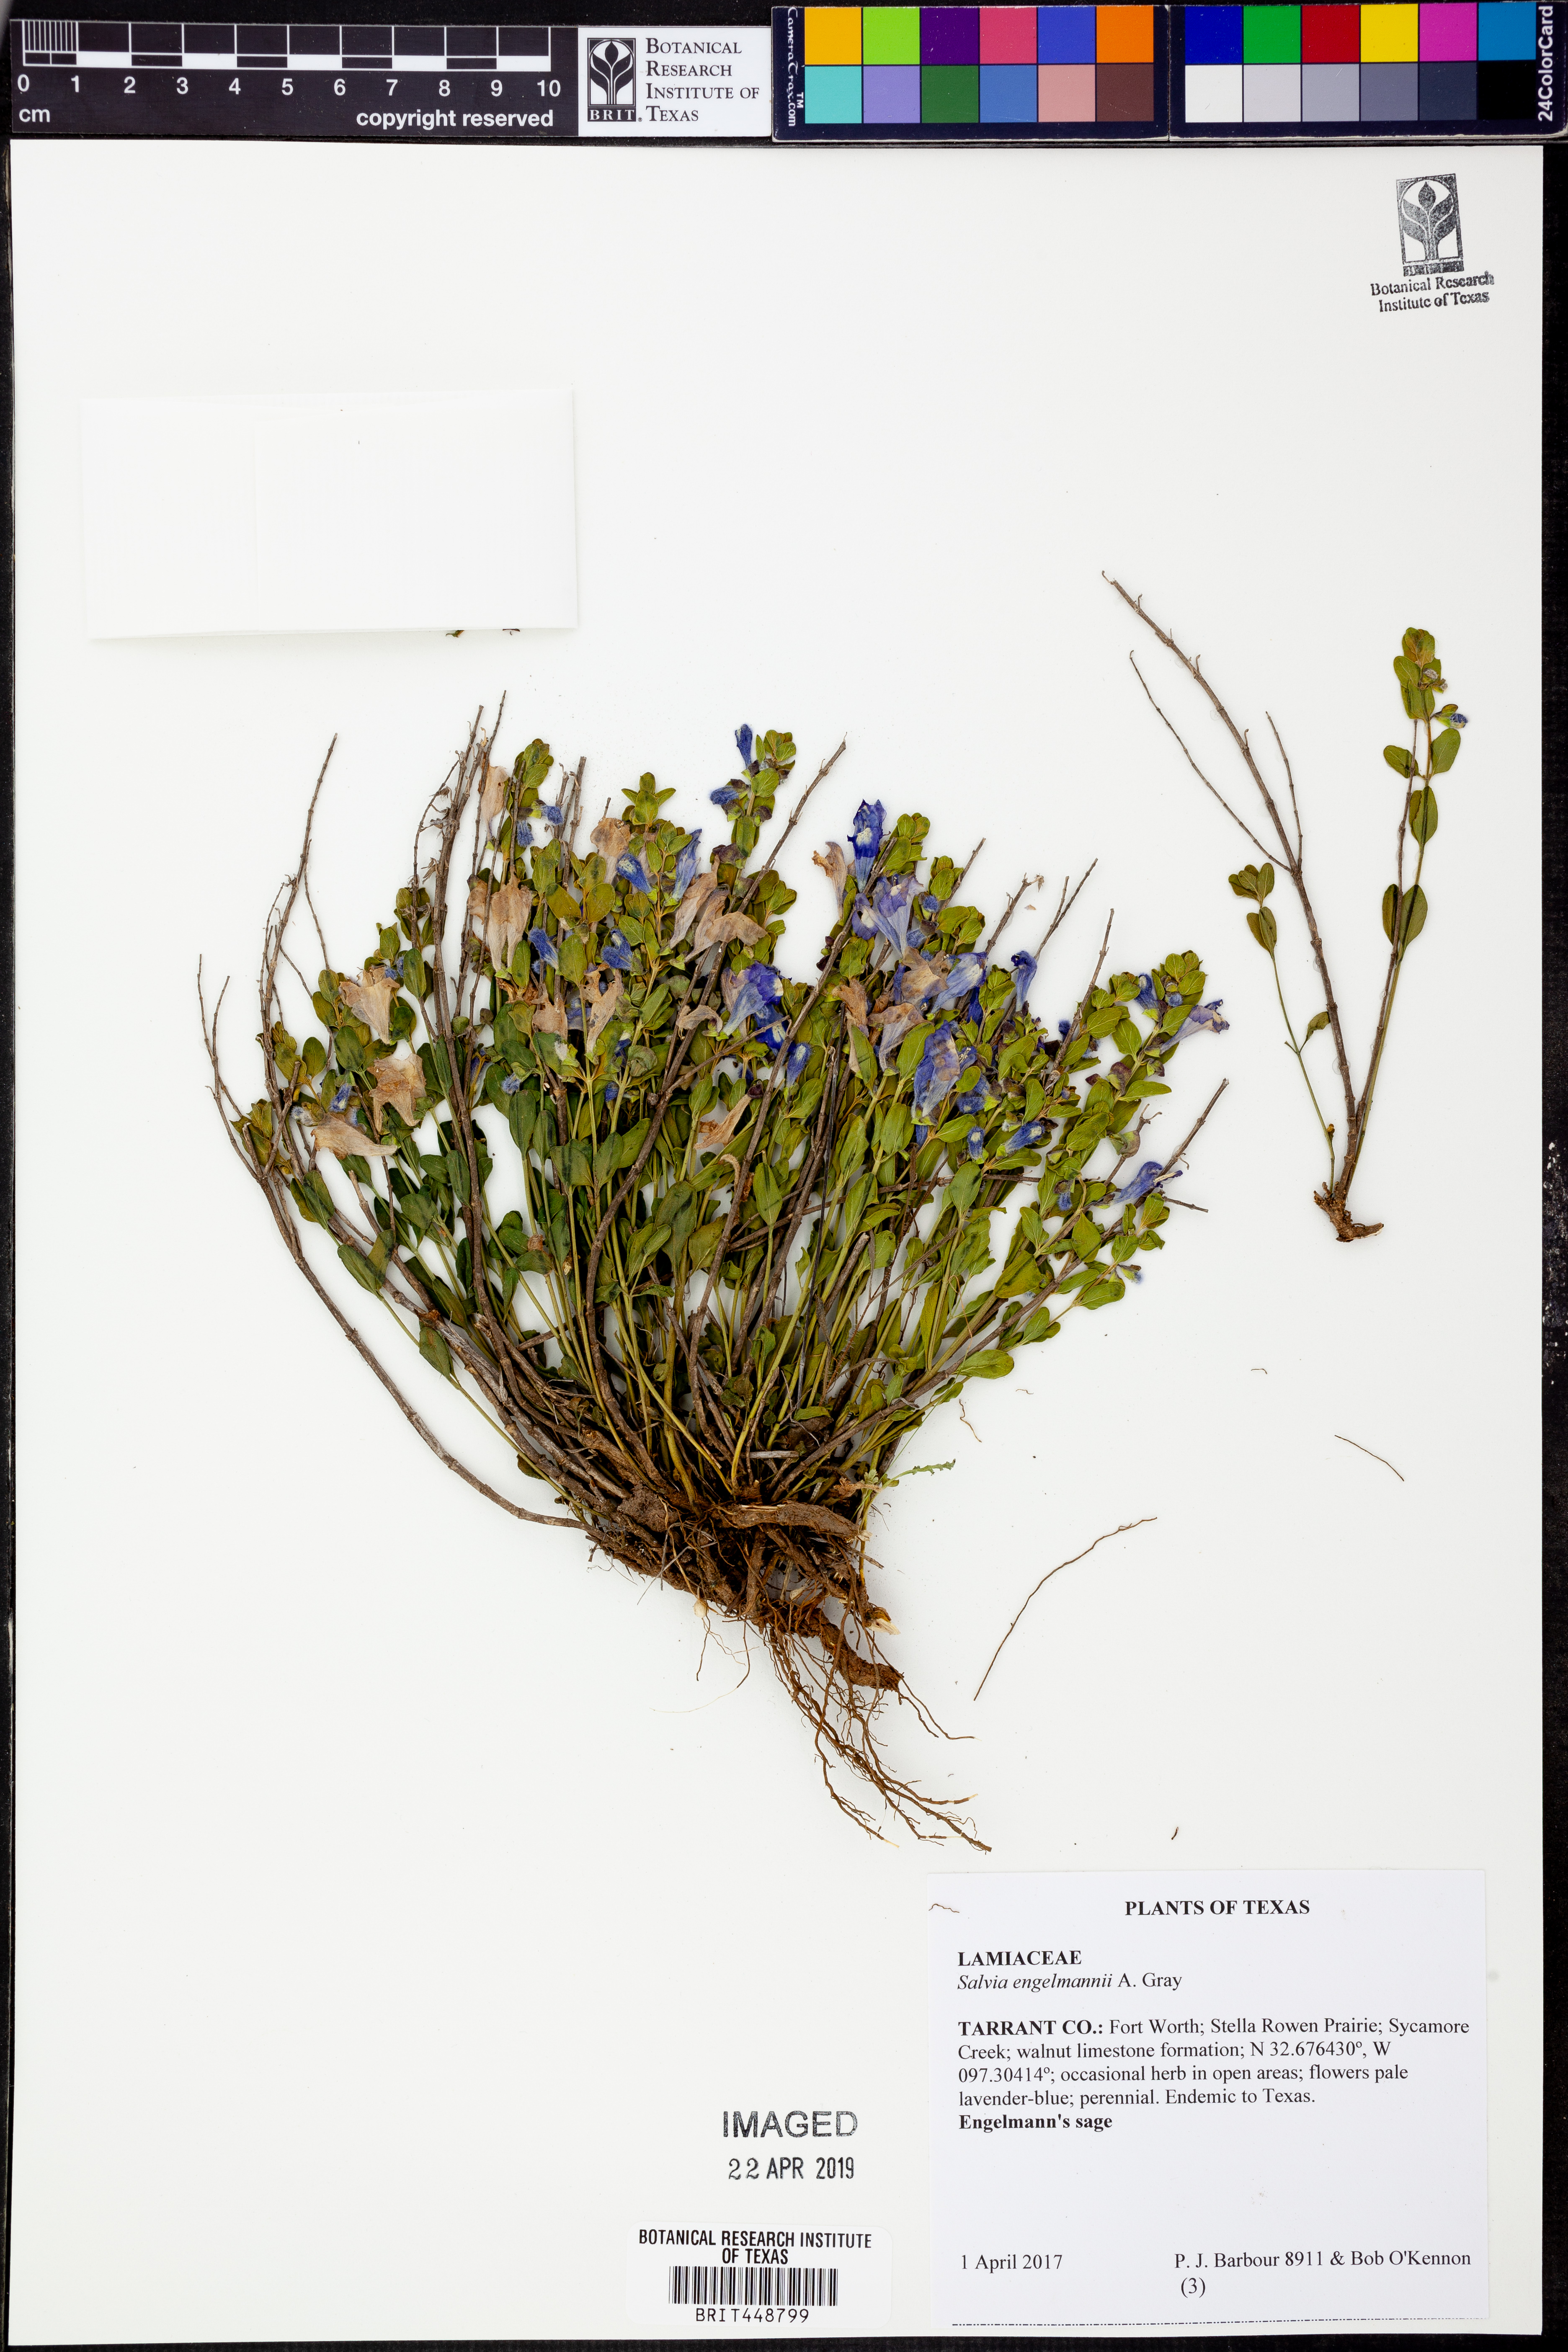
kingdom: Plantae
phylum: Tracheophyta
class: Magnoliopsida
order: Lamiales
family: Lamiaceae
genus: Salvia
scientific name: Salvia engelmannii
